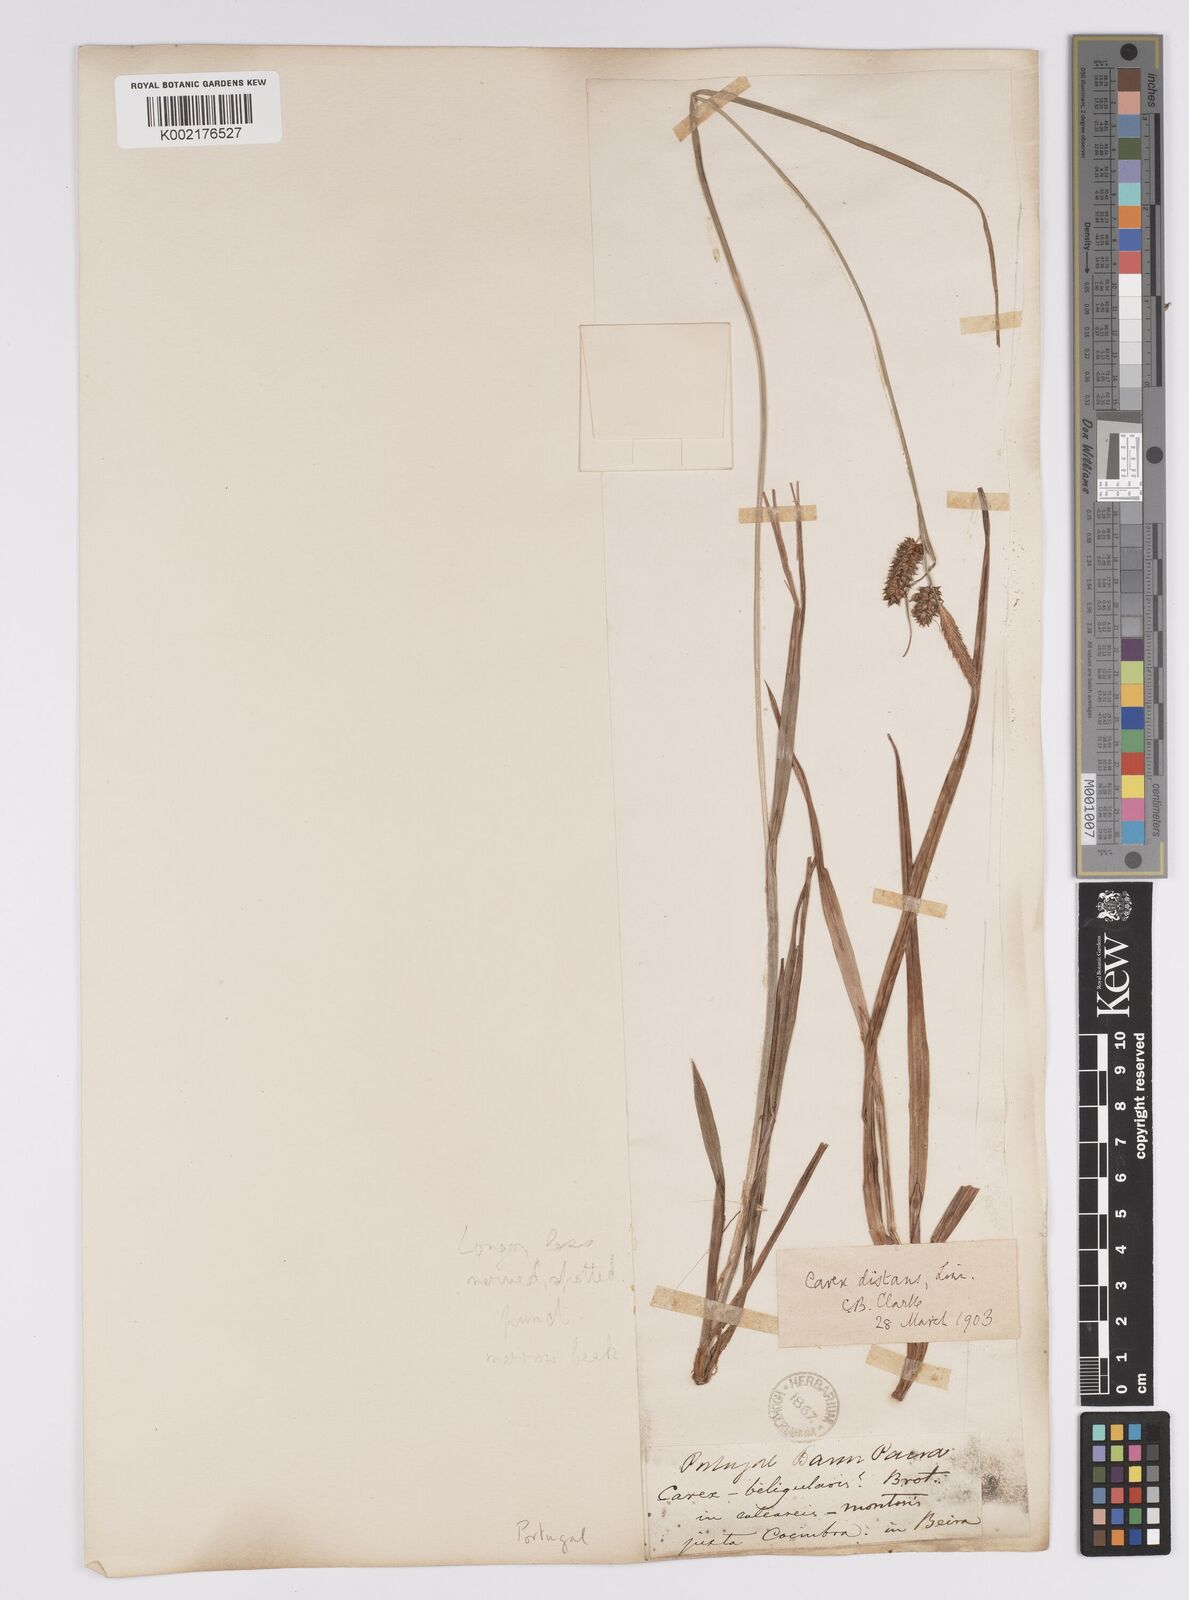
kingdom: Plantae
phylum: Tracheophyta
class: Liliopsida
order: Poales
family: Cyperaceae
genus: Carex
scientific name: Carex distans
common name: Distant sedge
